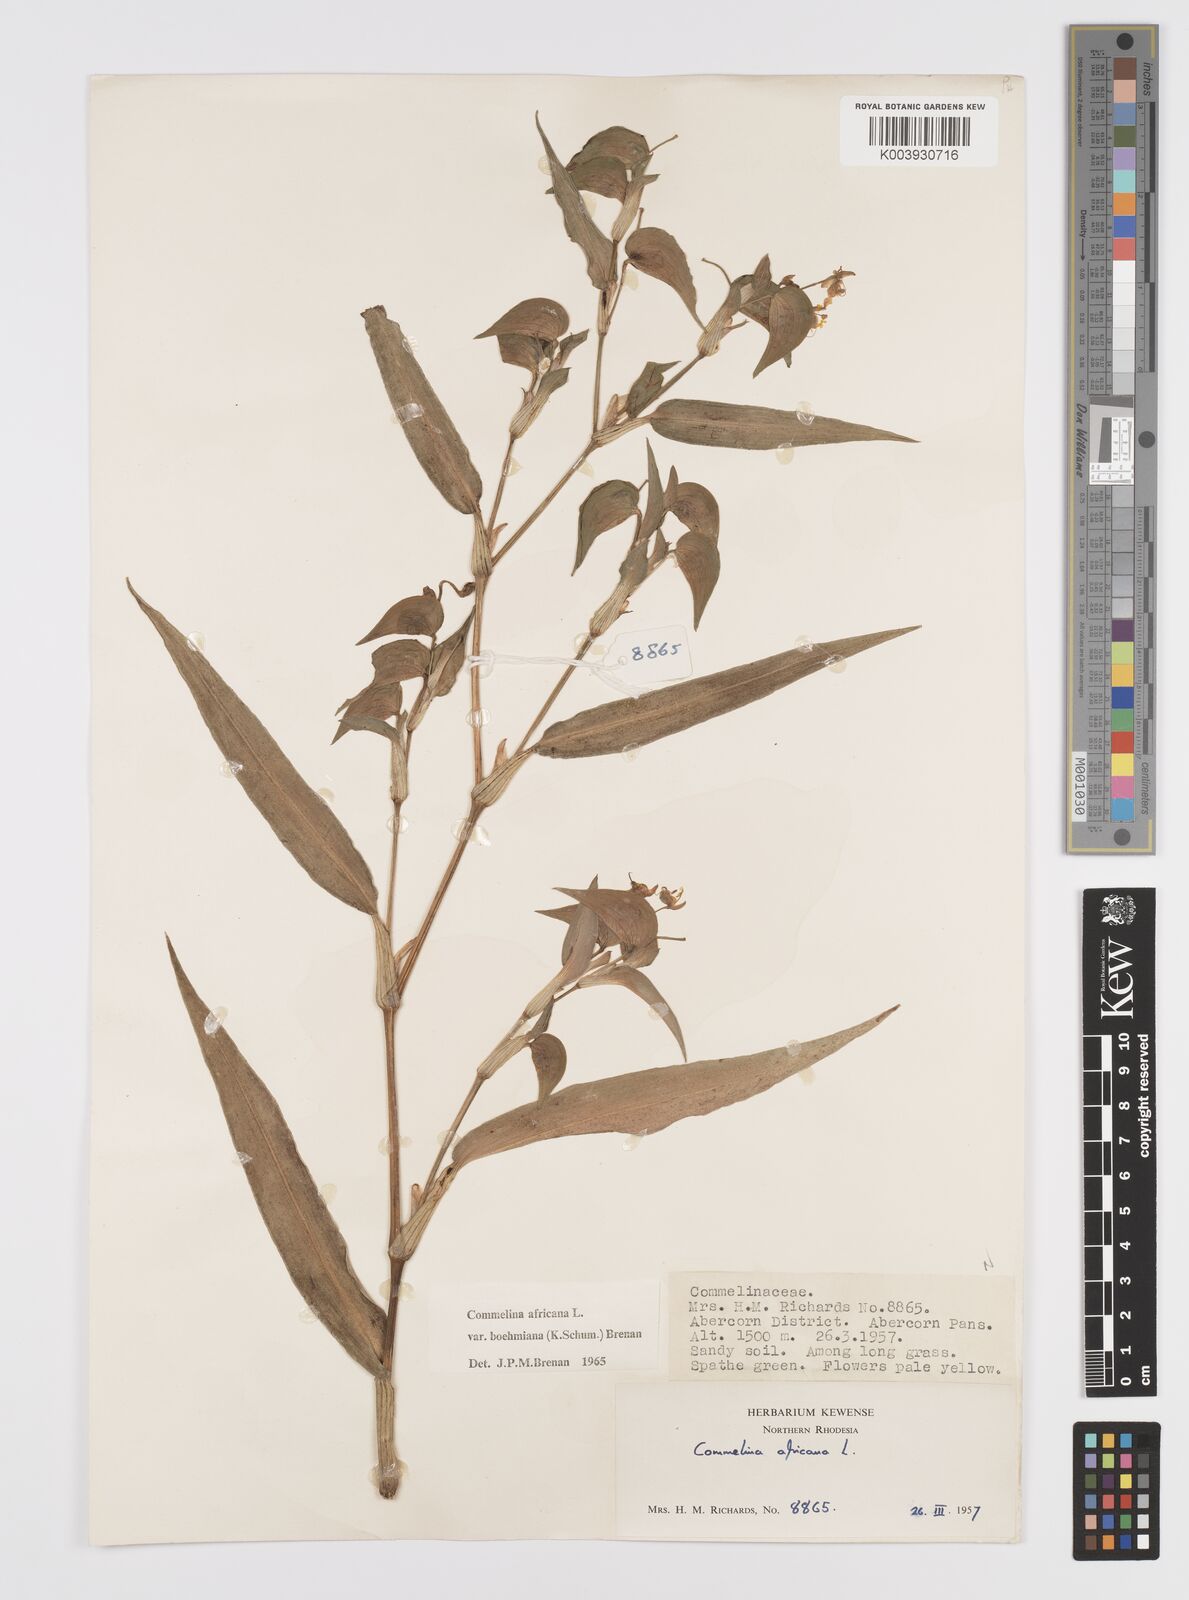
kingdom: Plantae
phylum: Tracheophyta
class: Liliopsida
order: Commelinales
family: Commelinaceae
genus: Commelina
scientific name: Commelina africana
